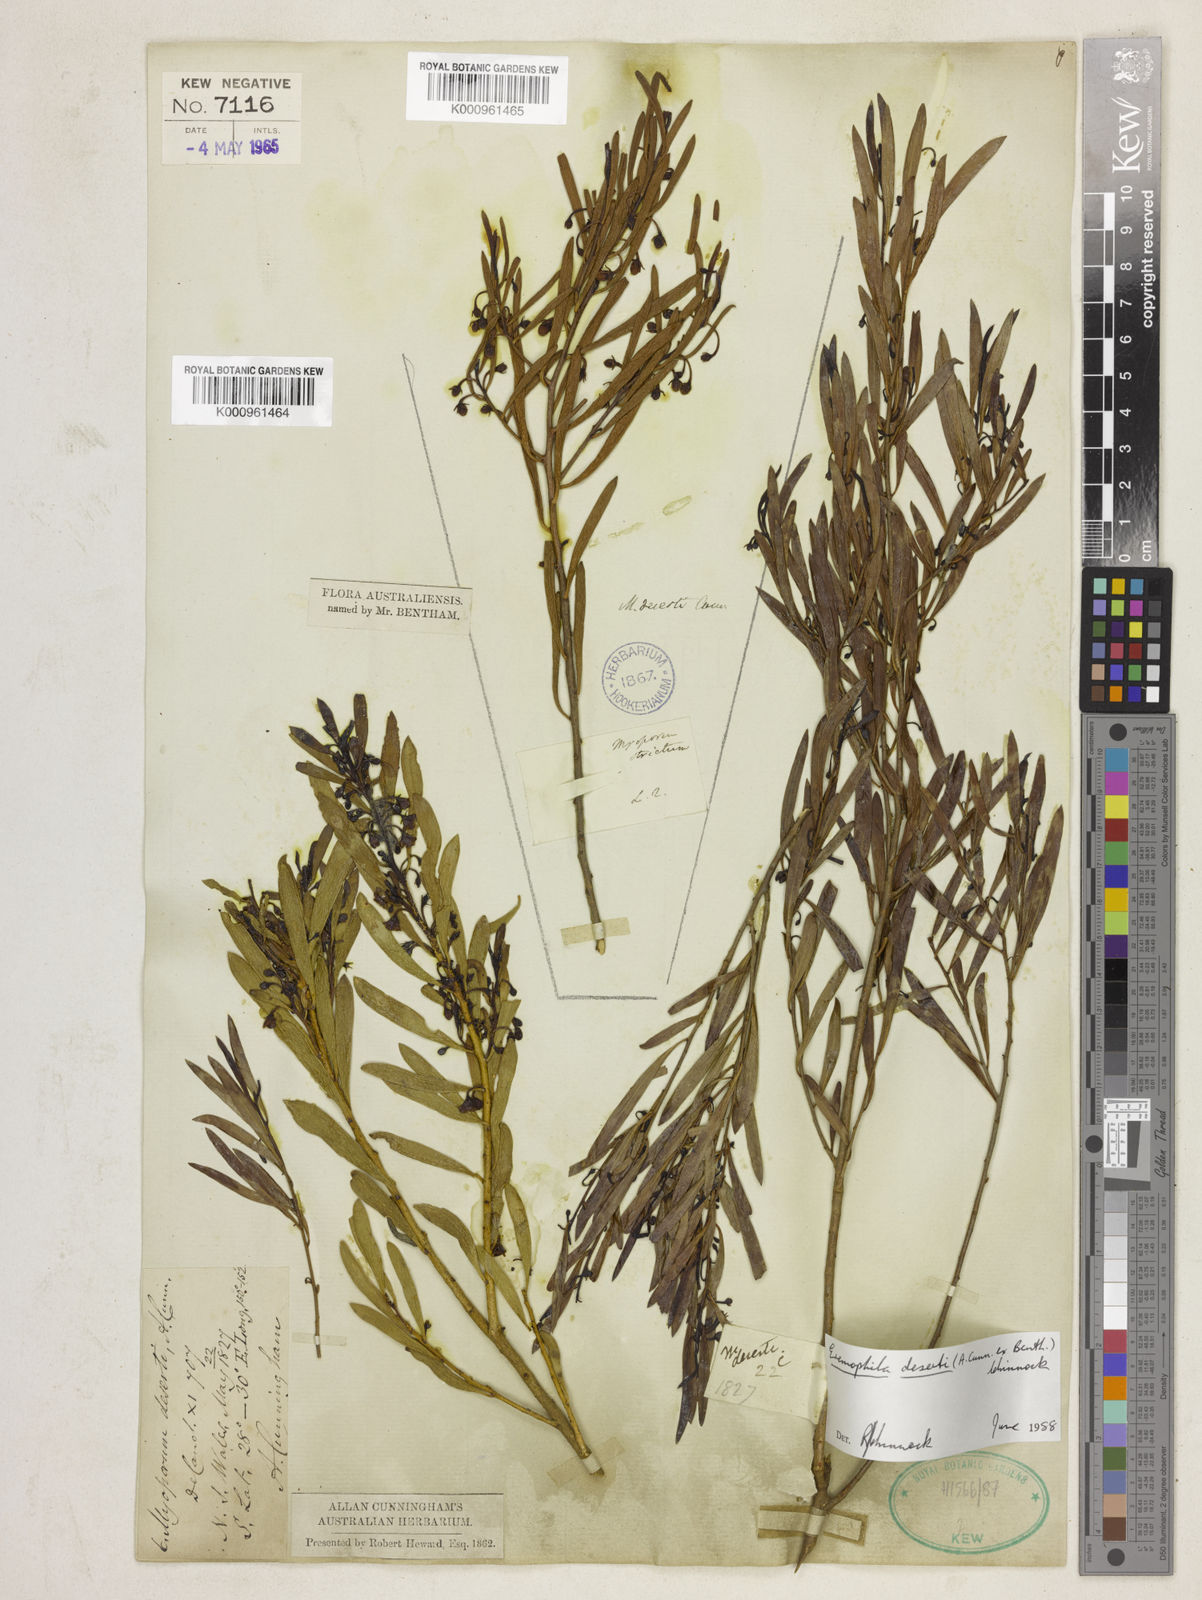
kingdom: Plantae
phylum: Tracheophyta
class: Magnoliopsida
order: Lamiales
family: Scrophulariaceae
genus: Eremophila
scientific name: Eremophila deserti
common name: Ellangowan-poisonbush
